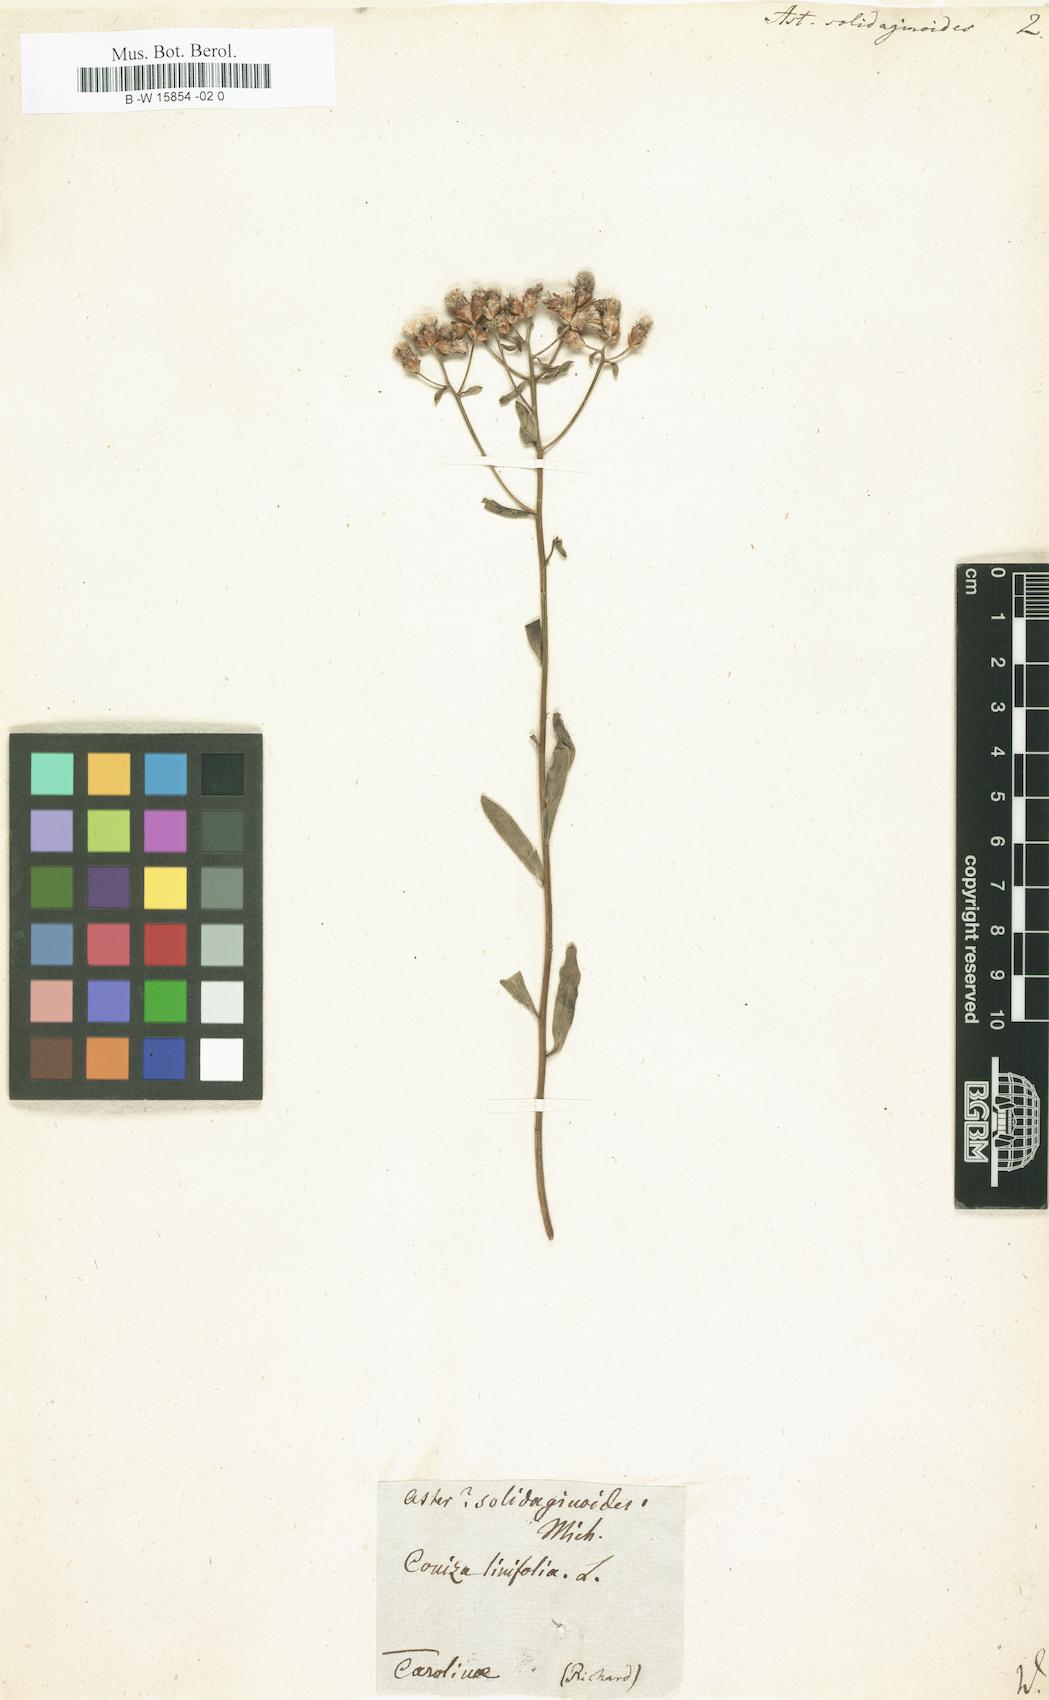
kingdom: Plantae
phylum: Tracheophyta
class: Magnoliopsida
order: Asterales
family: Asteraceae
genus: Sericocarpus
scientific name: Sericocarpus linifolius
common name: Narrow-leaf aster
